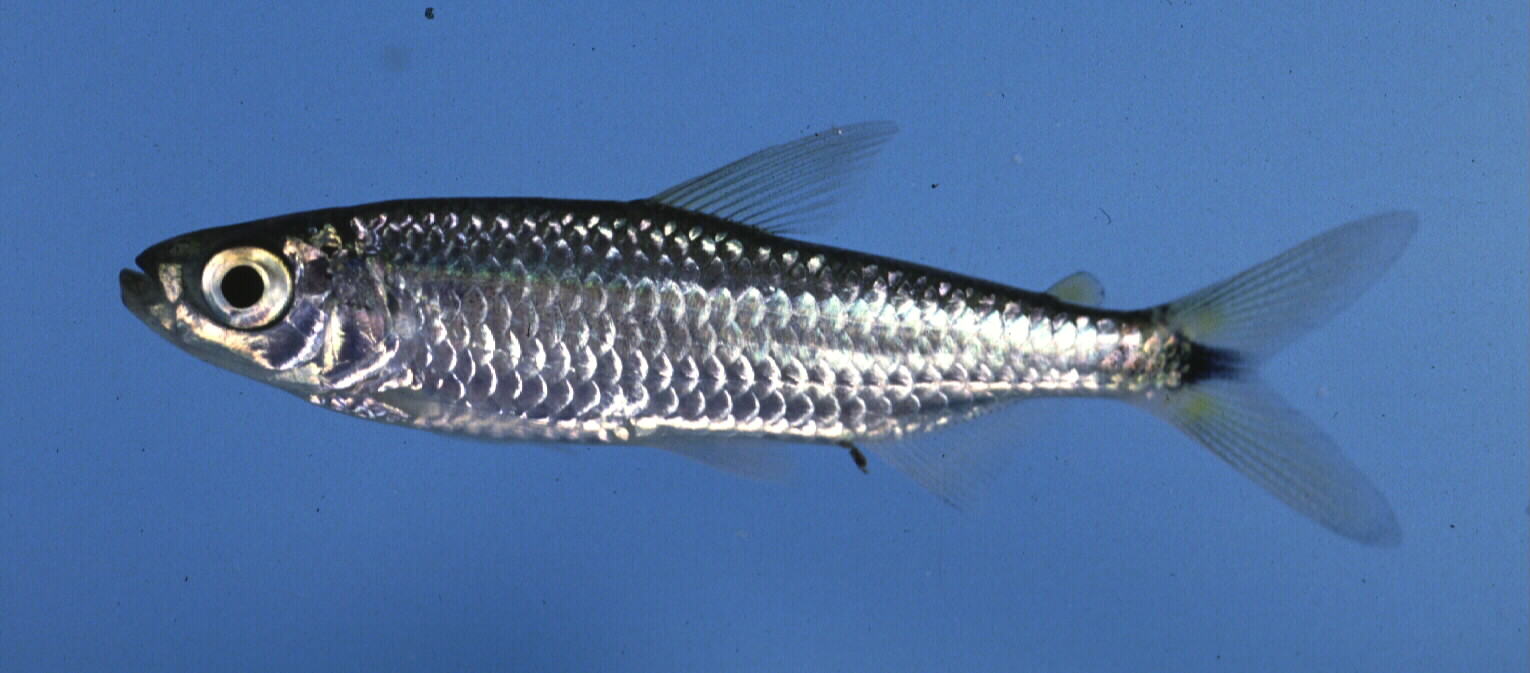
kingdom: Animalia
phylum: Chordata
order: Characiformes
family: Alestidae
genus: Brycinus
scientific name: Brycinus lateralis
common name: Striped robber
